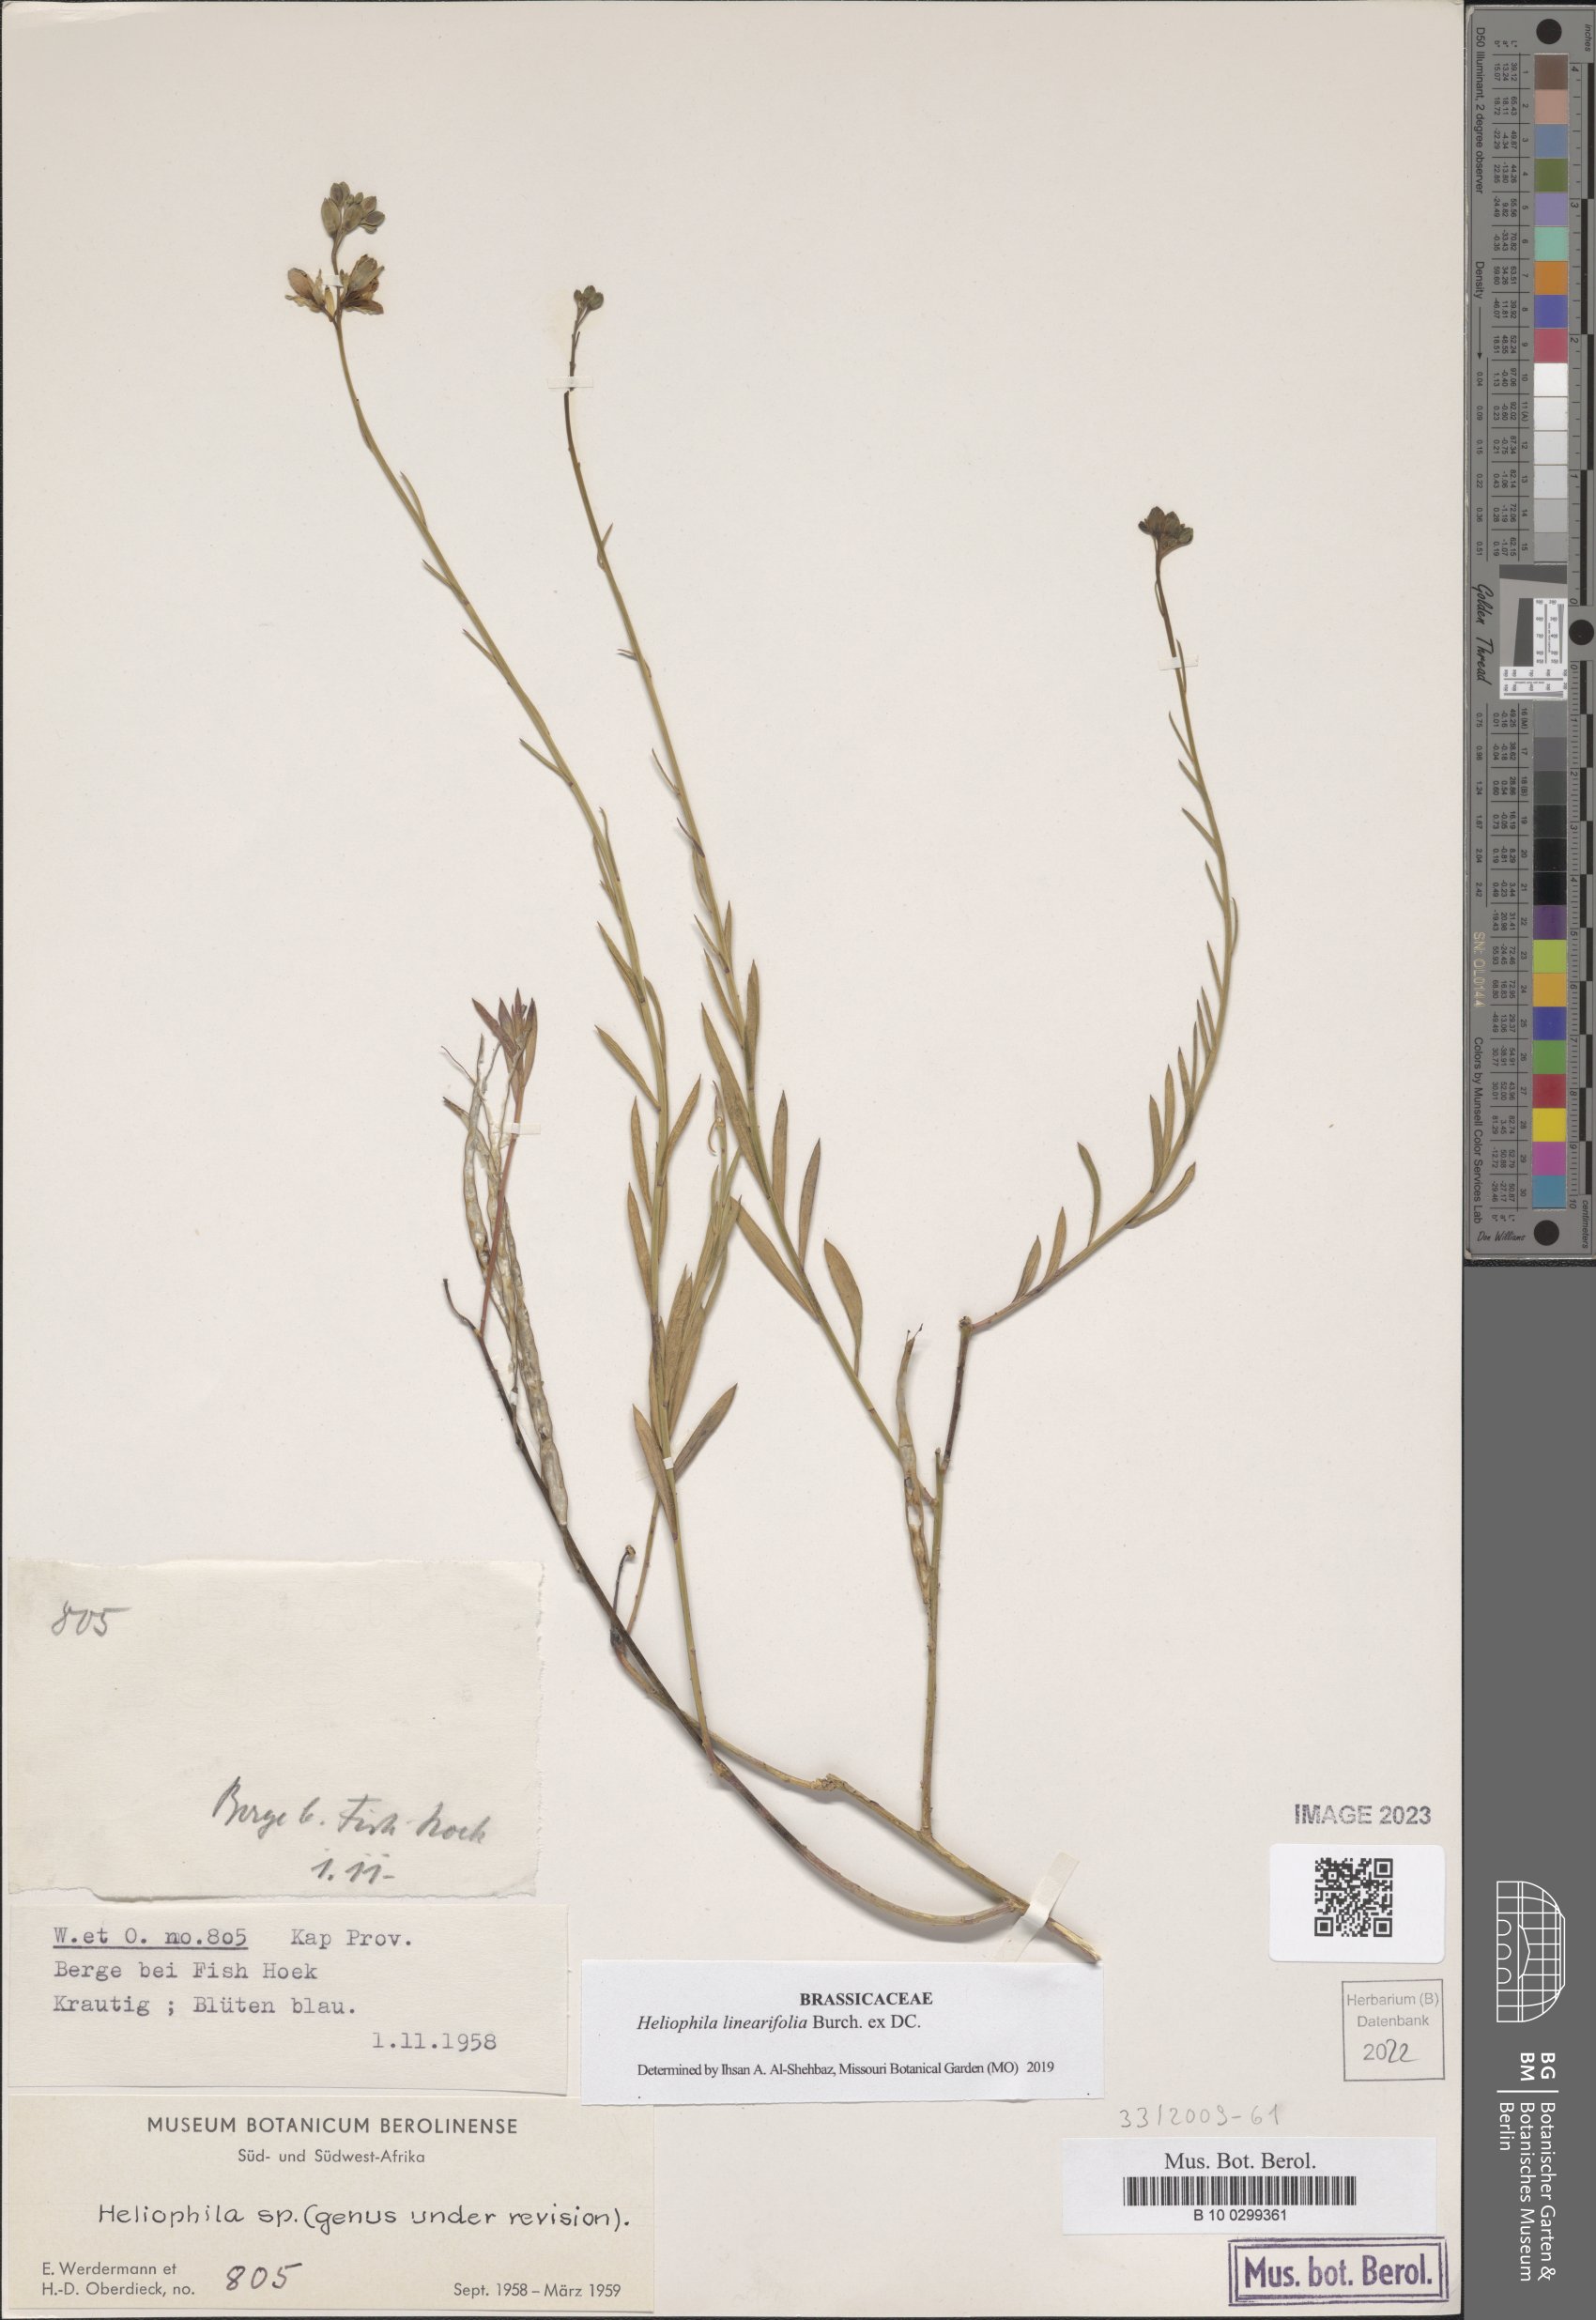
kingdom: Plantae
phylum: Tracheophyta
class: Magnoliopsida
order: Brassicales
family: Brassicaceae
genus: Heliophila
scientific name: Heliophila linearis
